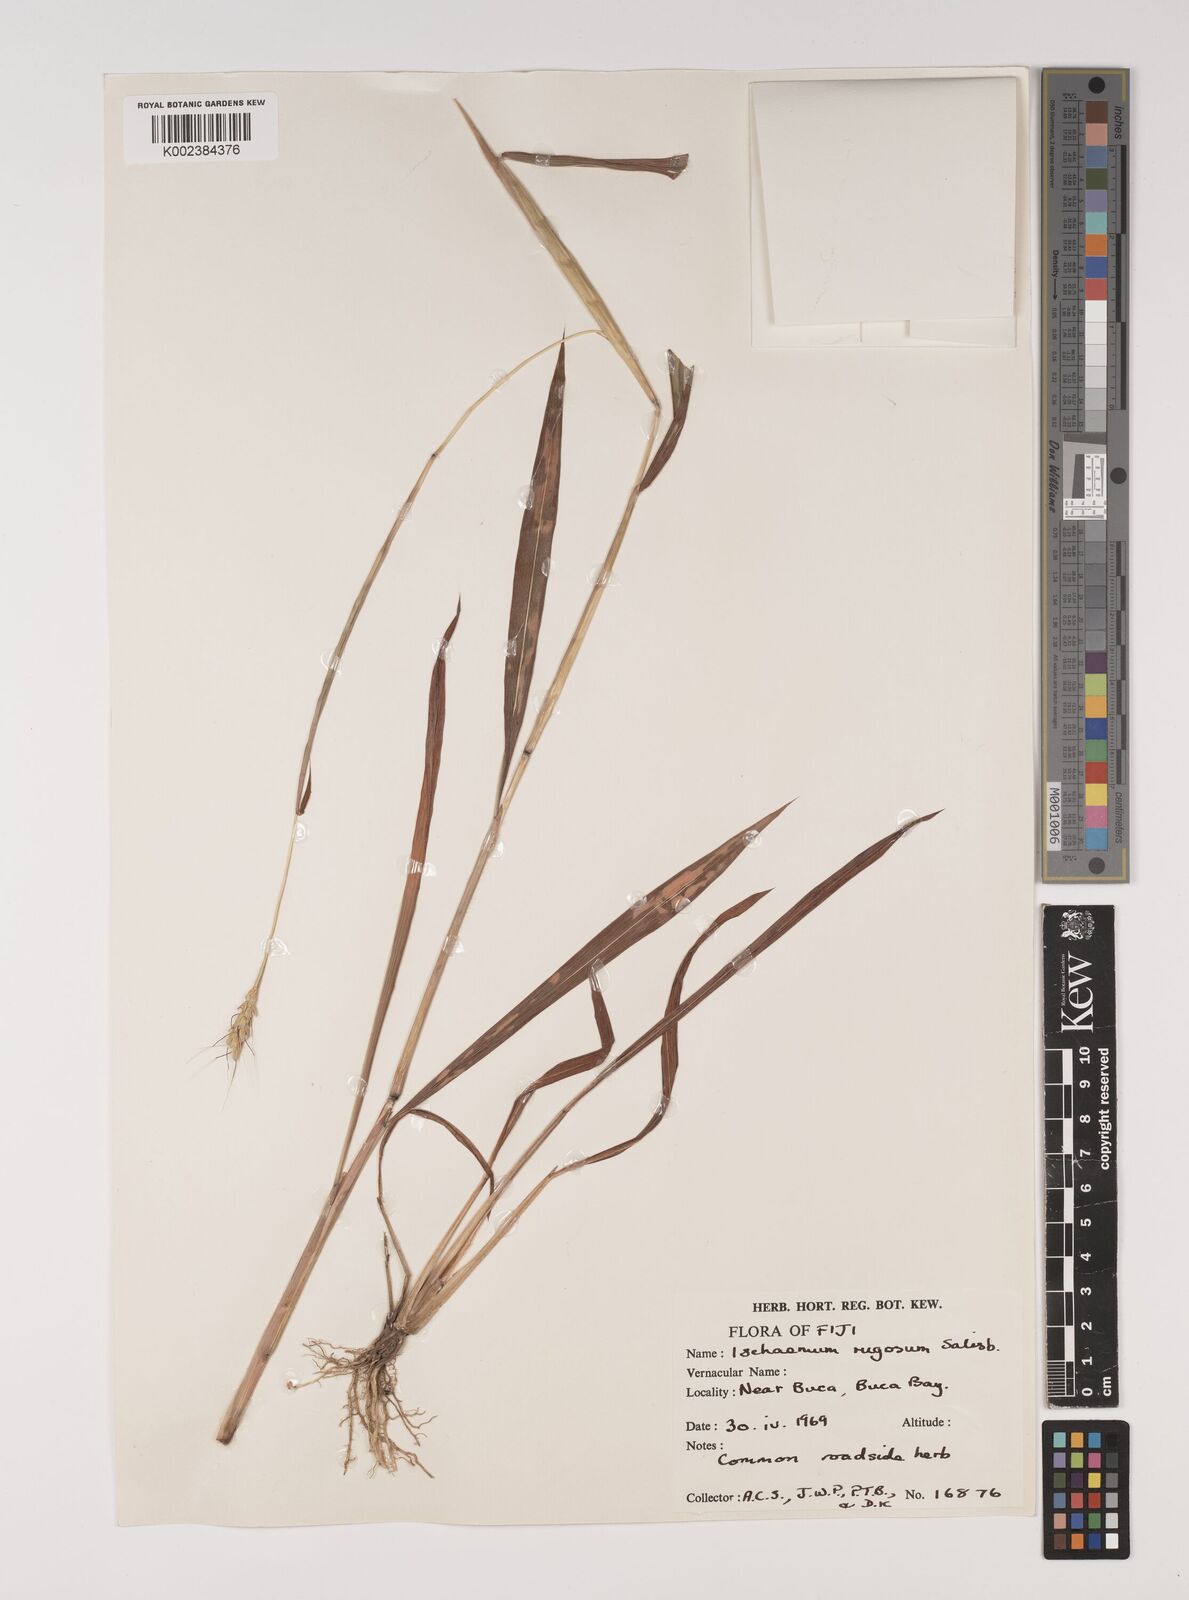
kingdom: Plantae
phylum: Tracheophyta
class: Liliopsida
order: Poales
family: Poaceae
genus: Ischaemum
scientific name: Ischaemum rugosum
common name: Saramatta grass
